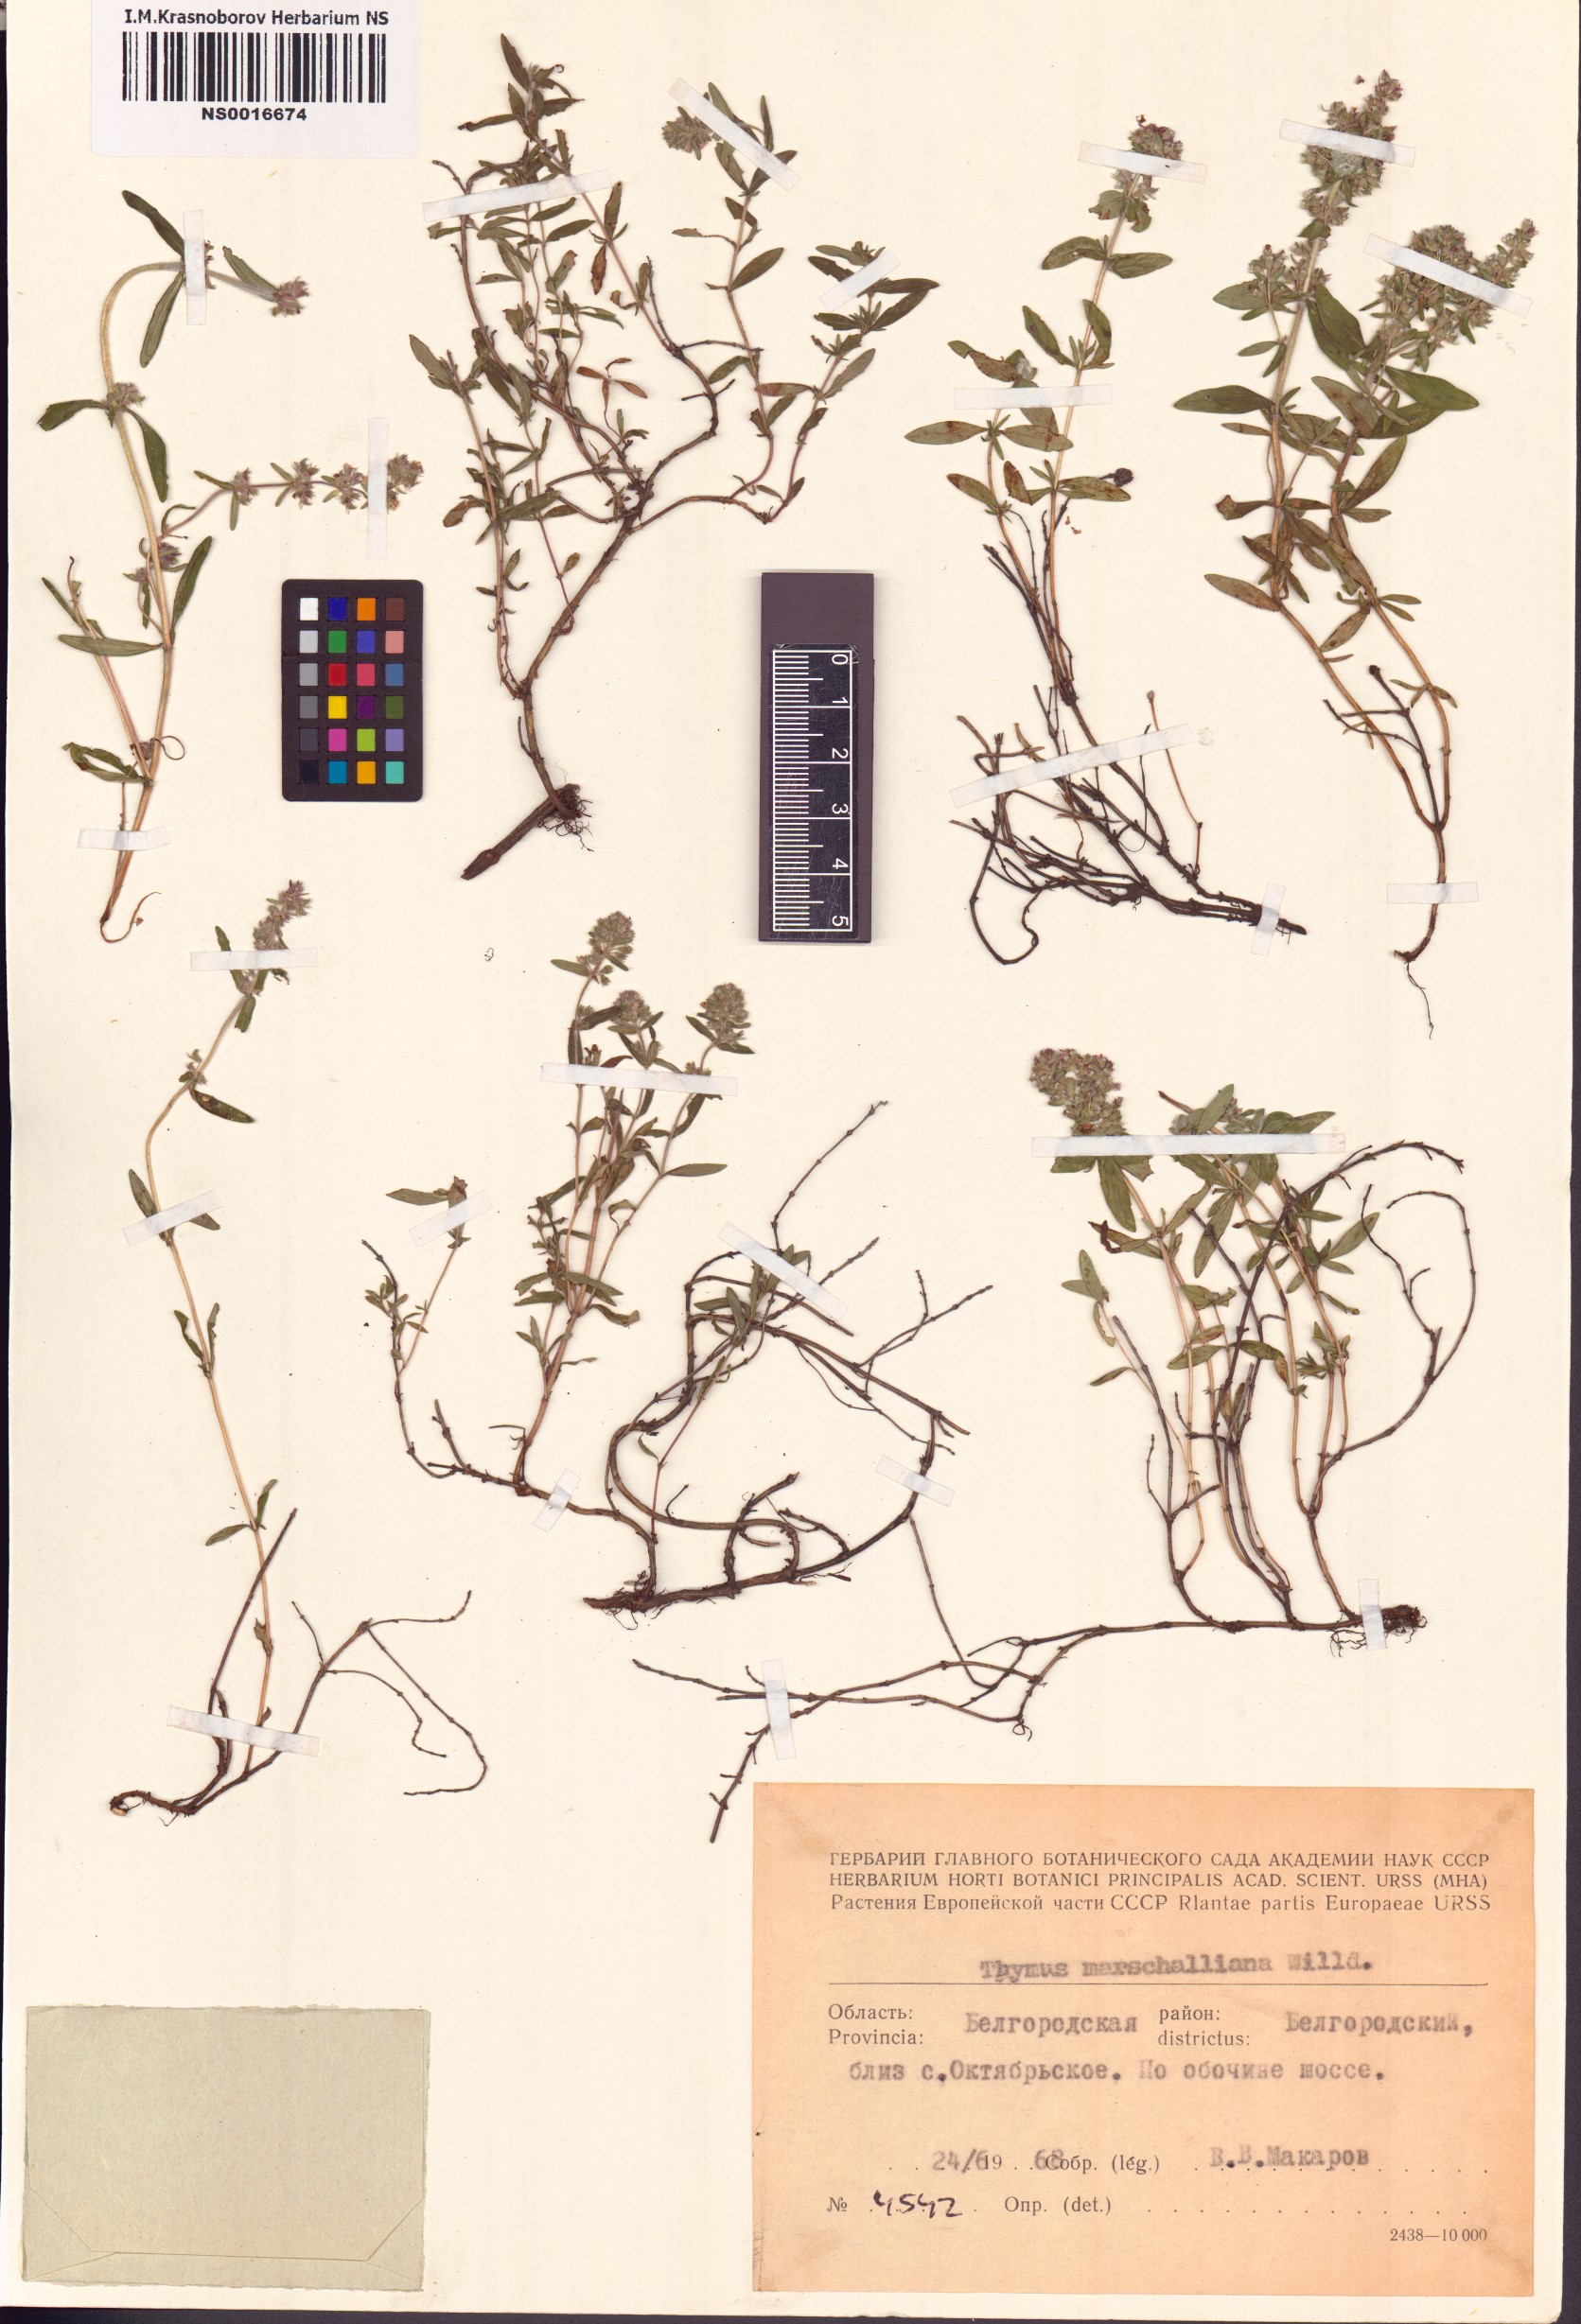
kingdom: Plantae
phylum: Tracheophyta
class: Magnoliopsida
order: Lamiales
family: Lamiaceae
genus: Thymus
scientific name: Thymus pannonicus
